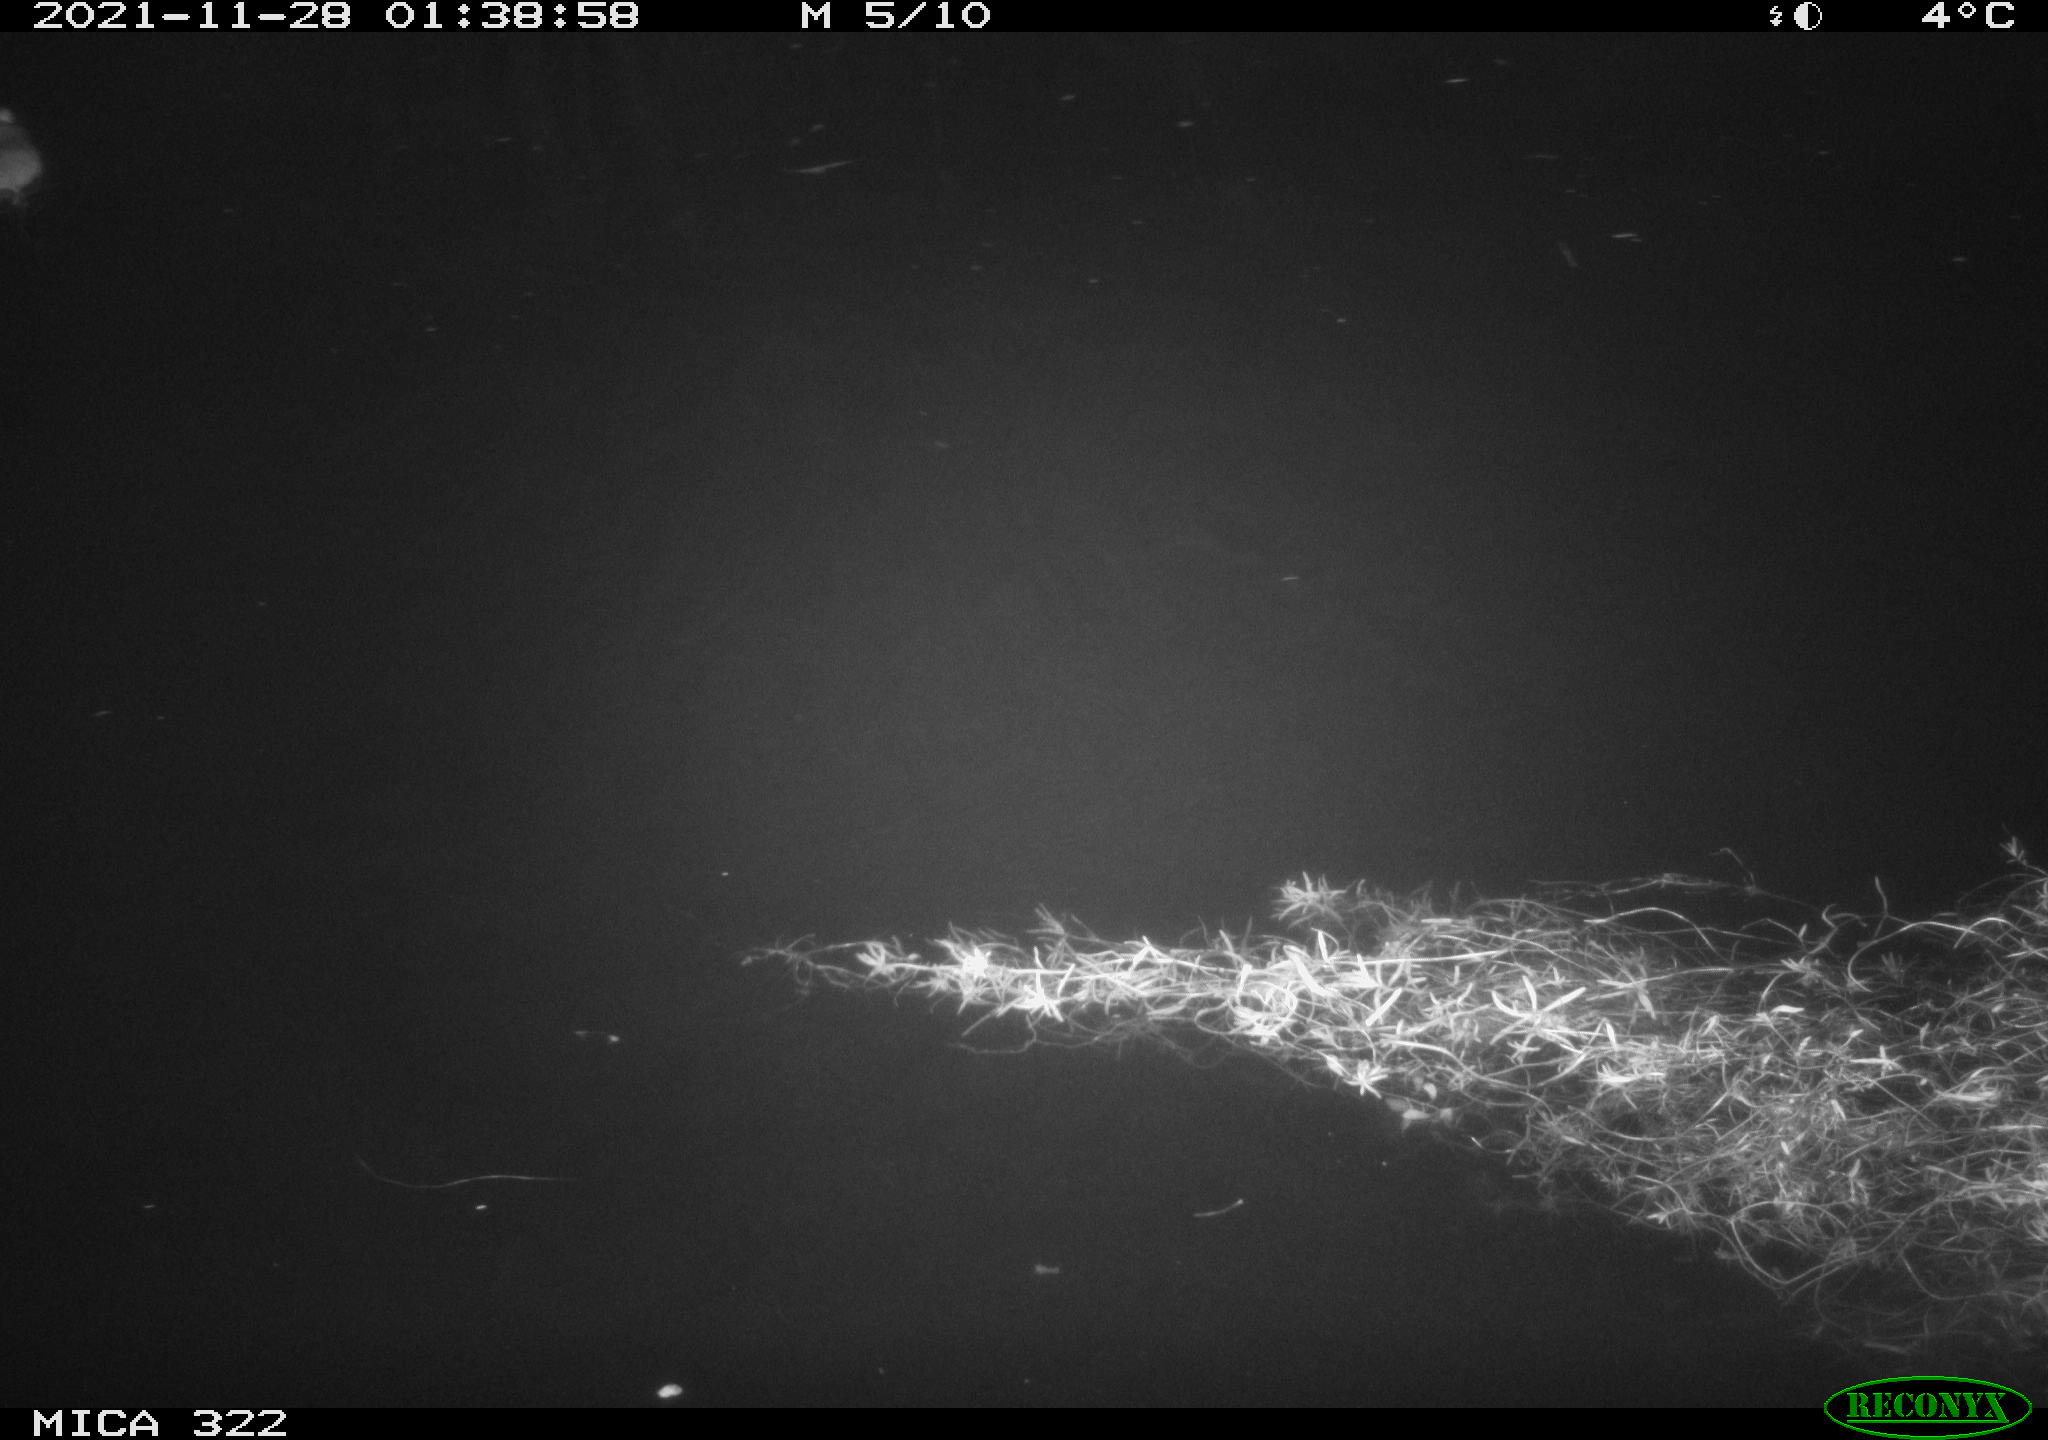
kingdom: Animalia
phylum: Chordata
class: Mammalia
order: Rodentia
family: Muridae
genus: Rattus
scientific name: Rattus norvegicus
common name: Brown rat
